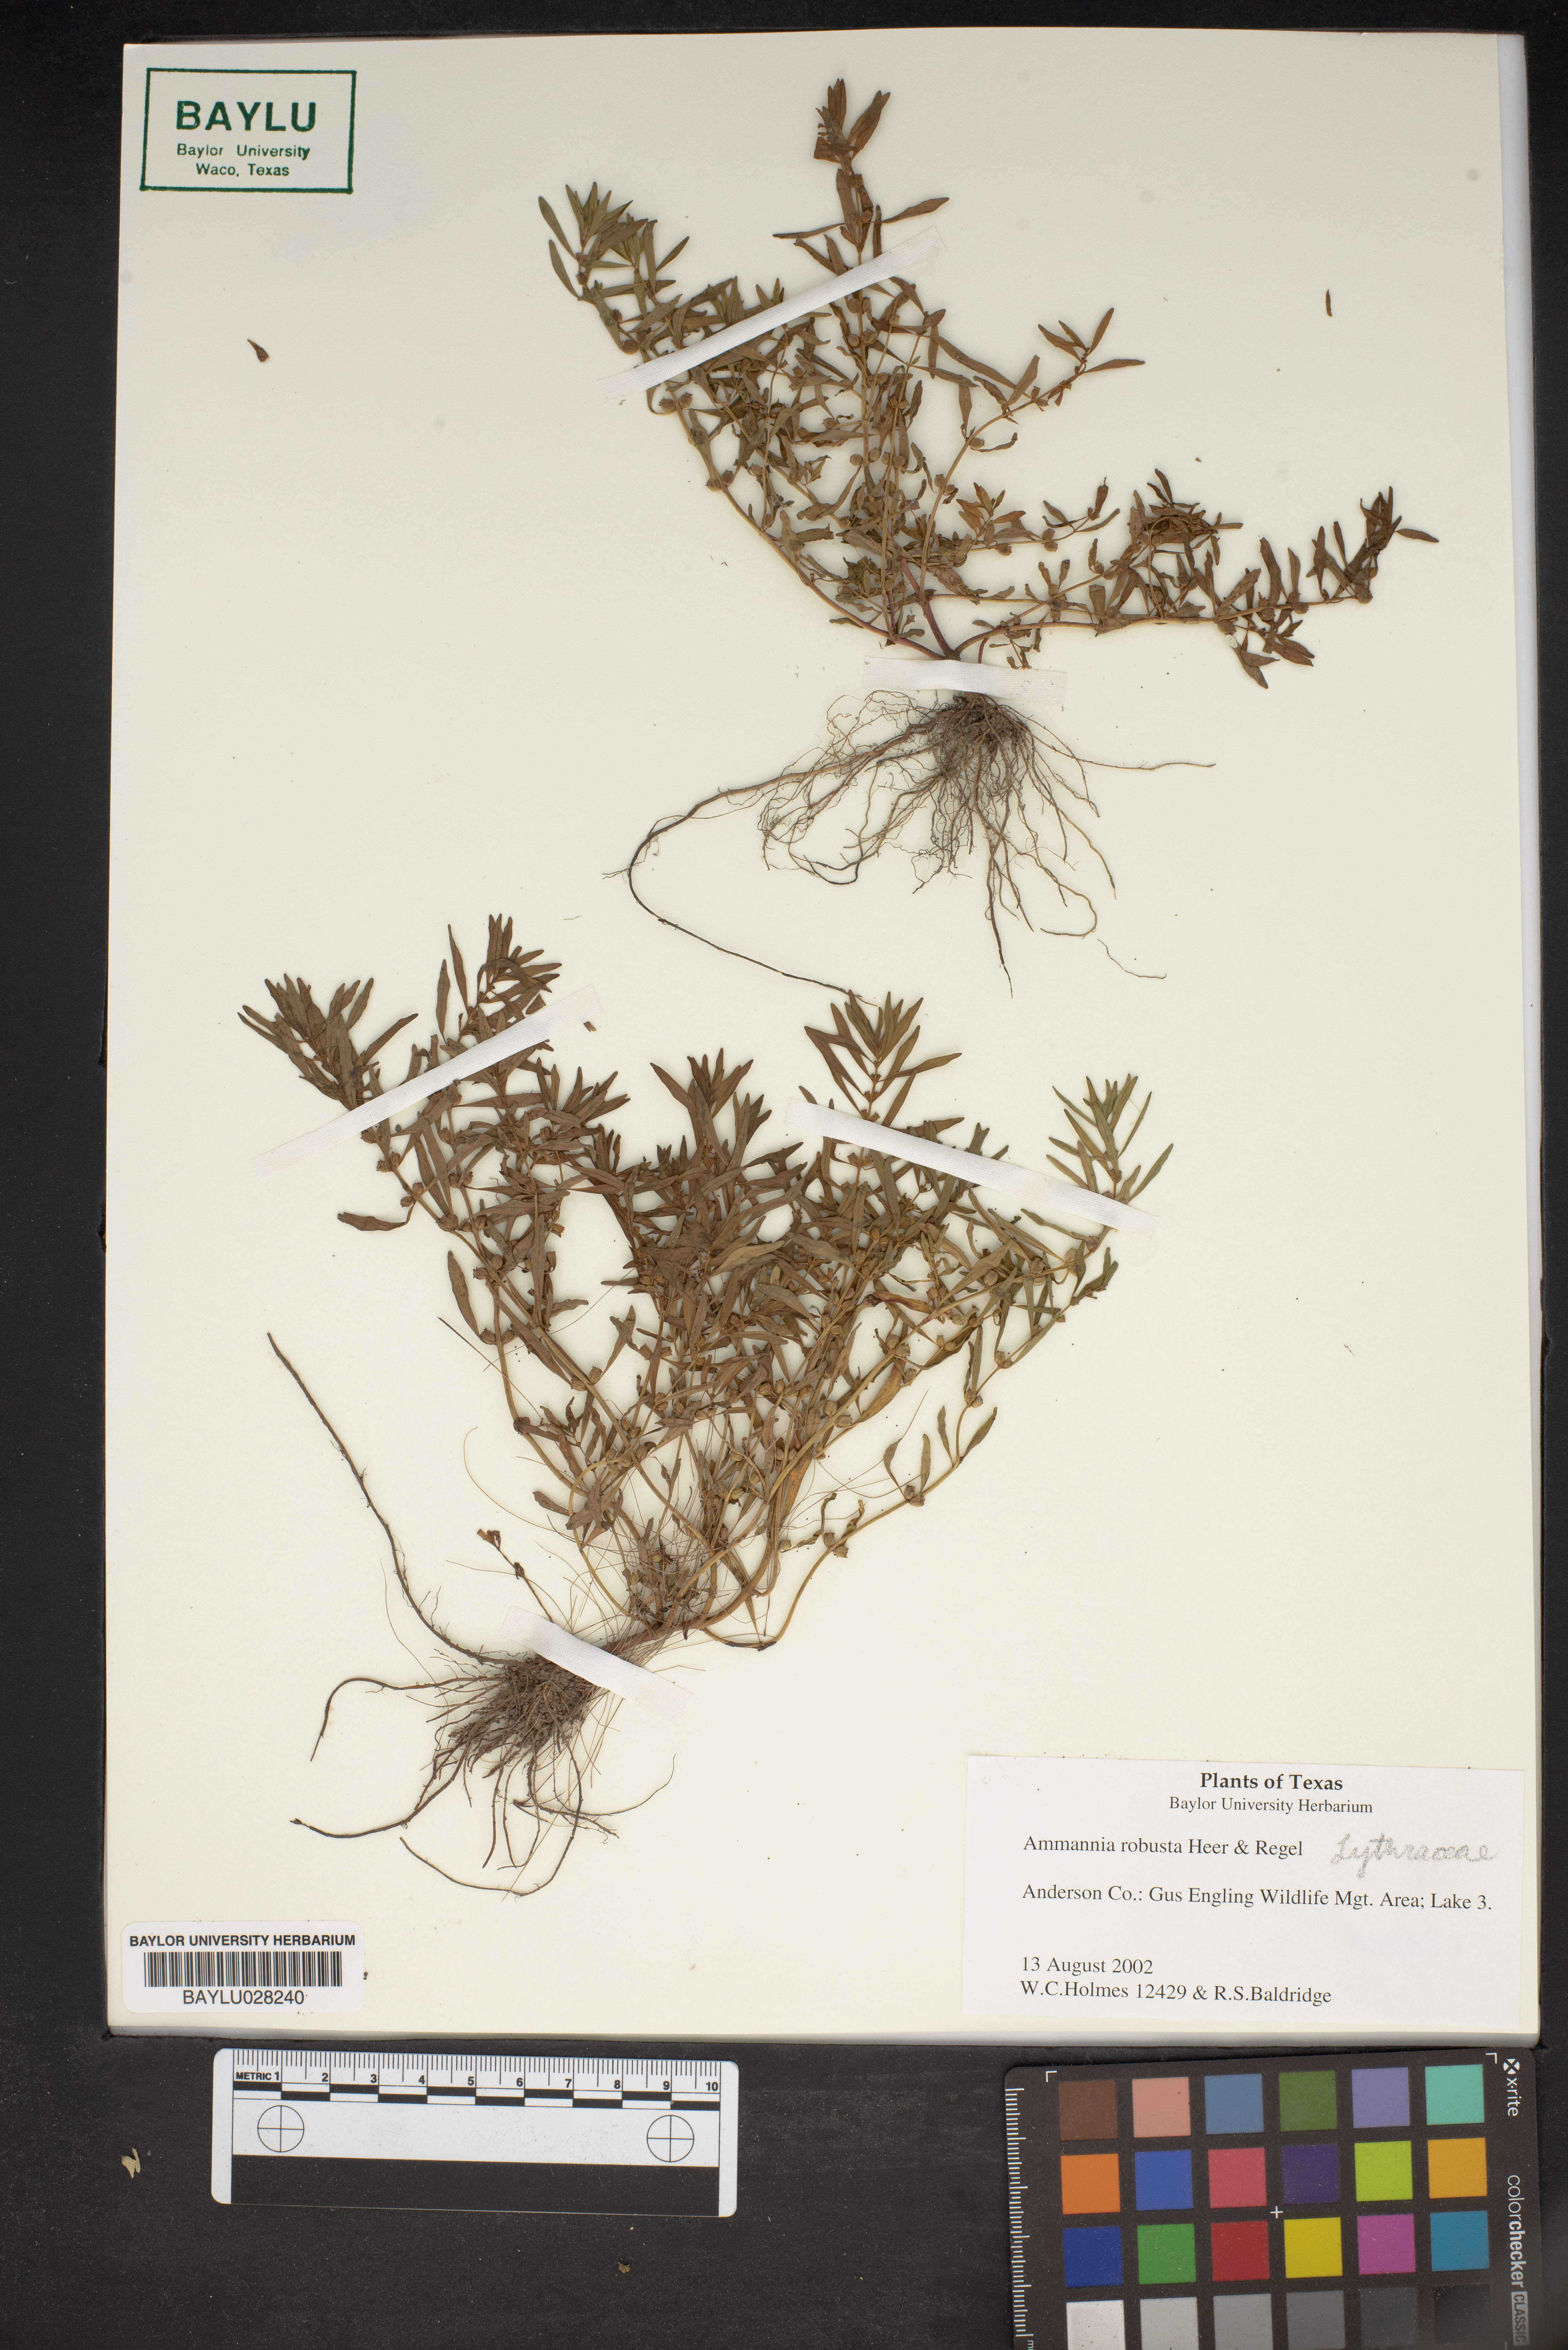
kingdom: Plantae
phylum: Tracheophyta
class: Magnoliopsida
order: Myrtales
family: Lythraceae
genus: Ammannia
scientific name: Ammannia robusta
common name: Grand ammannia
